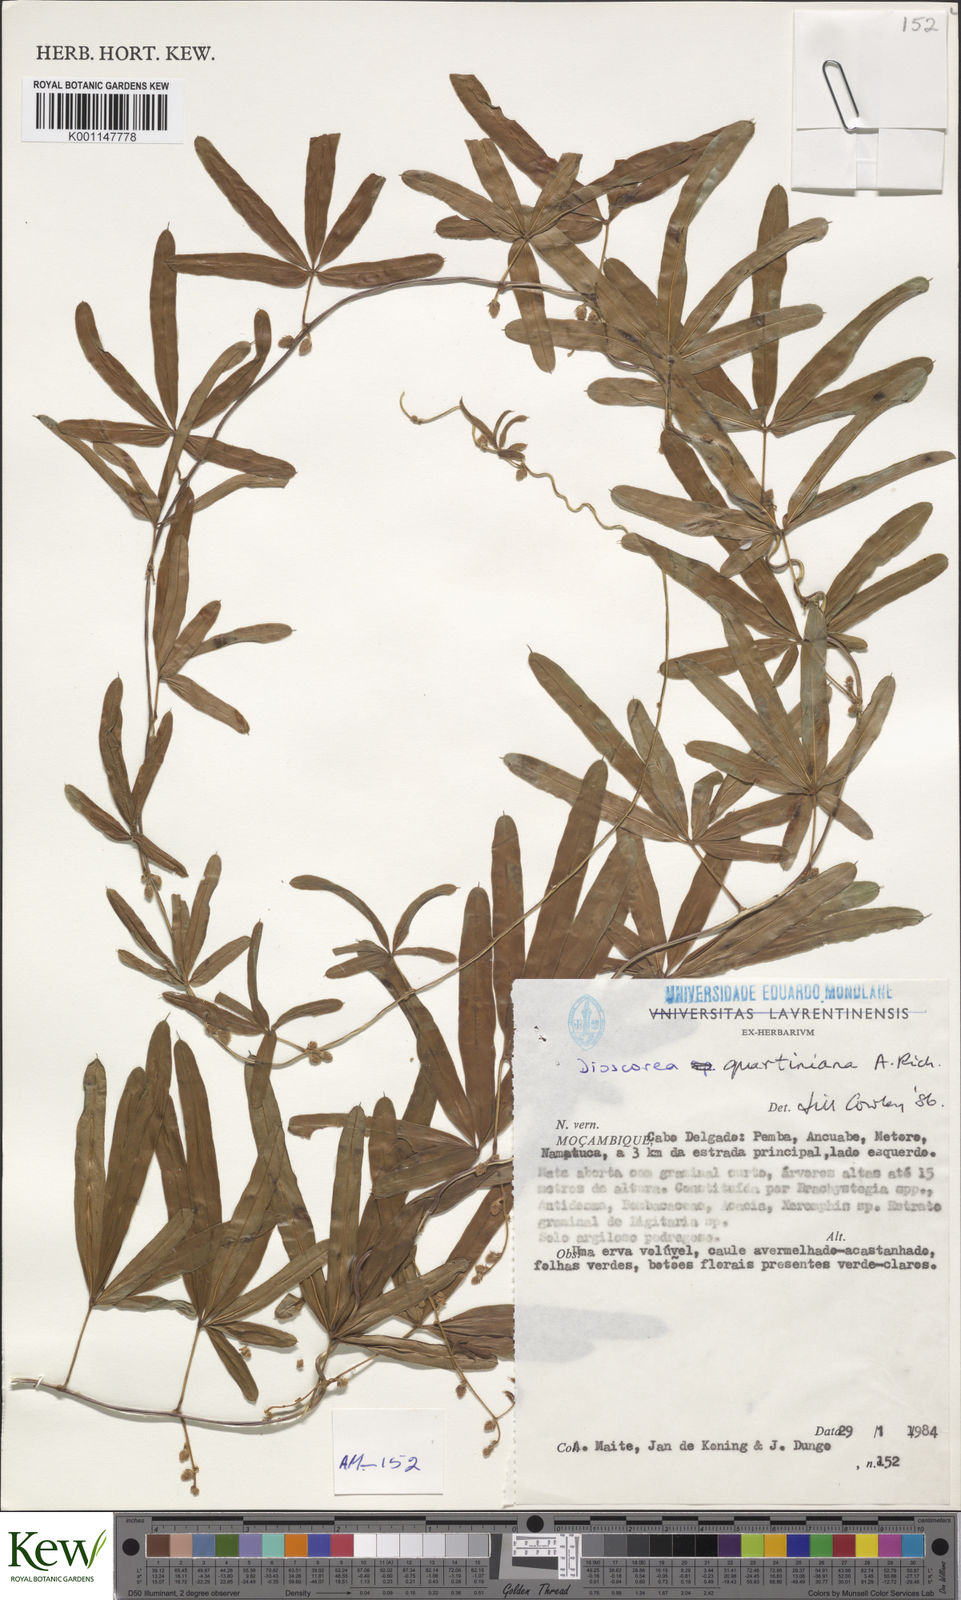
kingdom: Plantae
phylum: Tracheophyta
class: Liliopsida
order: Dioscoreales
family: Dioscoreaceae
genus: Dioscorea
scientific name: Dioscorea quartiniana
